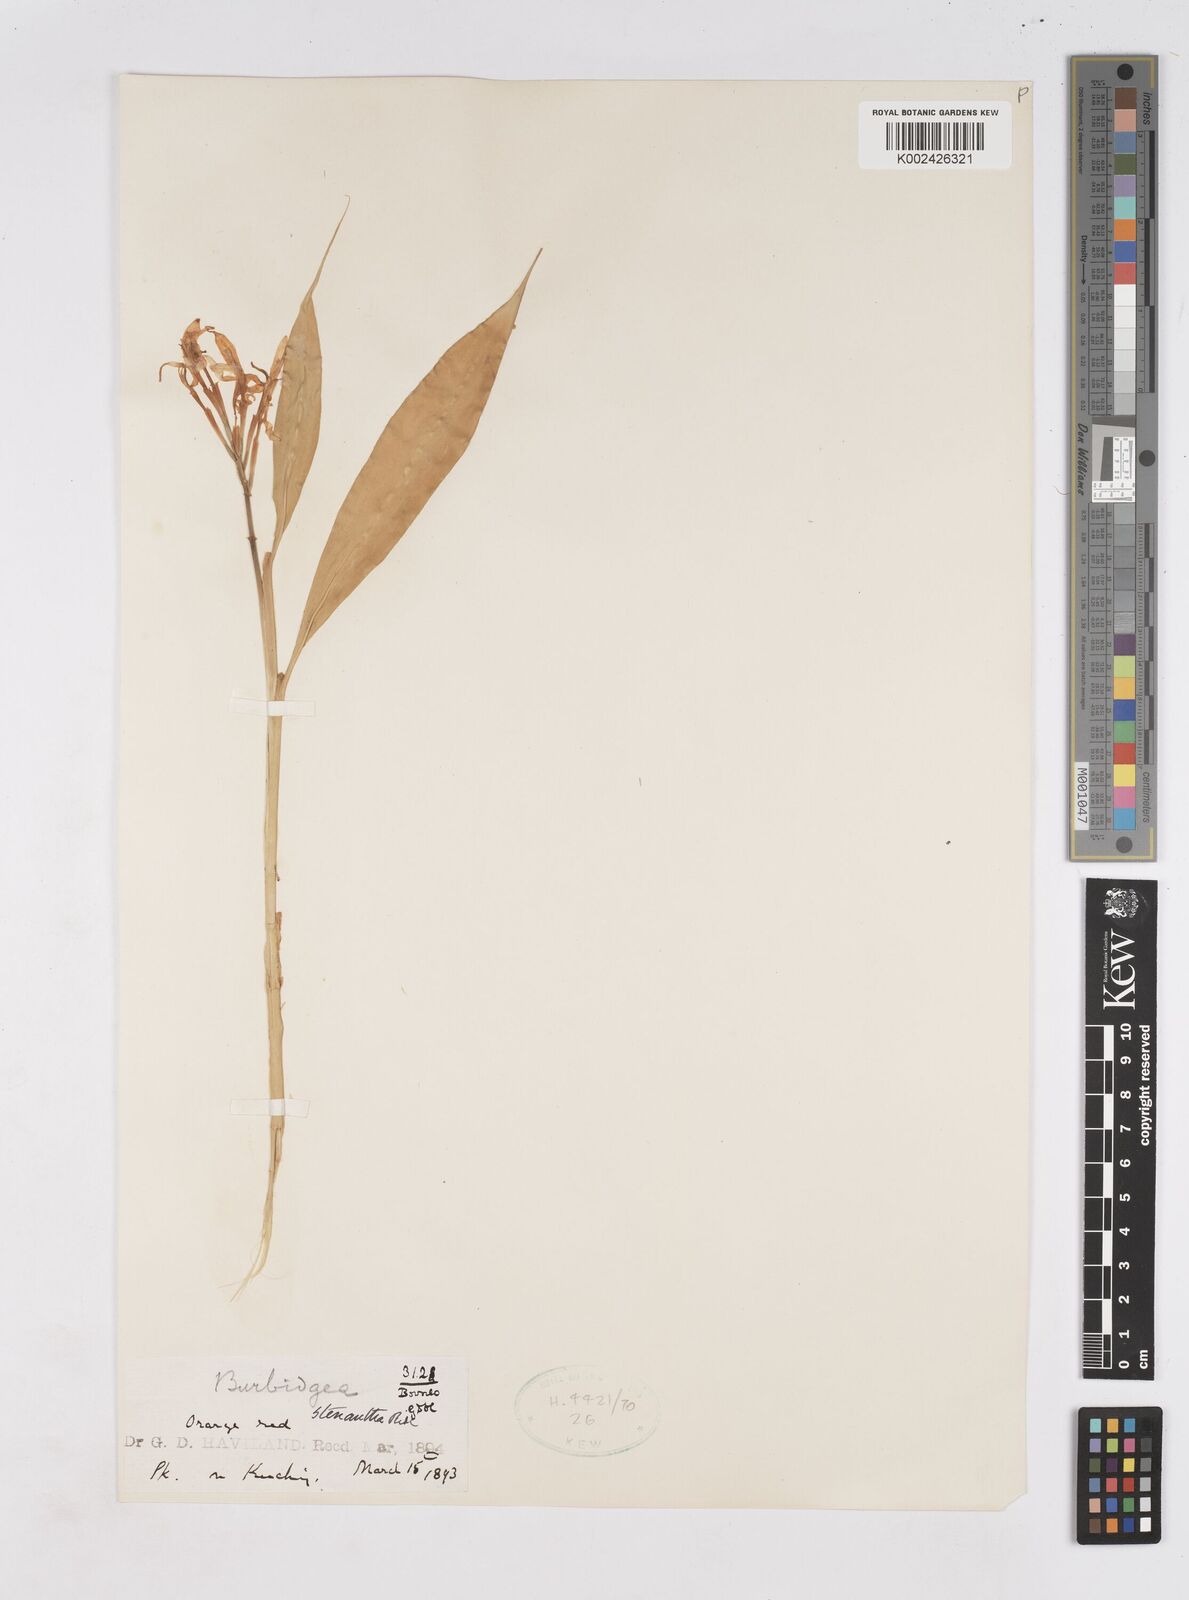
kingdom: Plantae
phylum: Tracheophyta
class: Liliopsida
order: Zingiberales
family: Zingiberaceae
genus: Burbidgea
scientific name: Burbidgea stenantha
